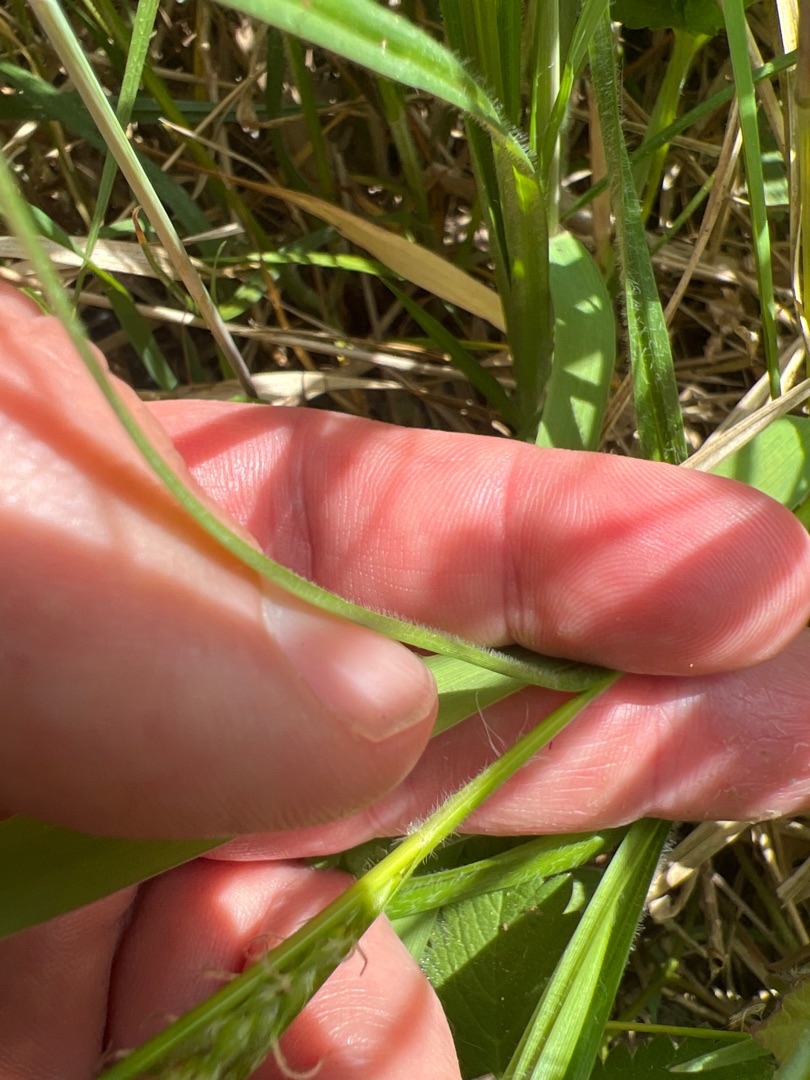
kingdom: Plantae
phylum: Tracheophyta
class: Liliopsida
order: Poales
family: Cyperaceae
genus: Carex
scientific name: Carex hirta
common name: Håret star
